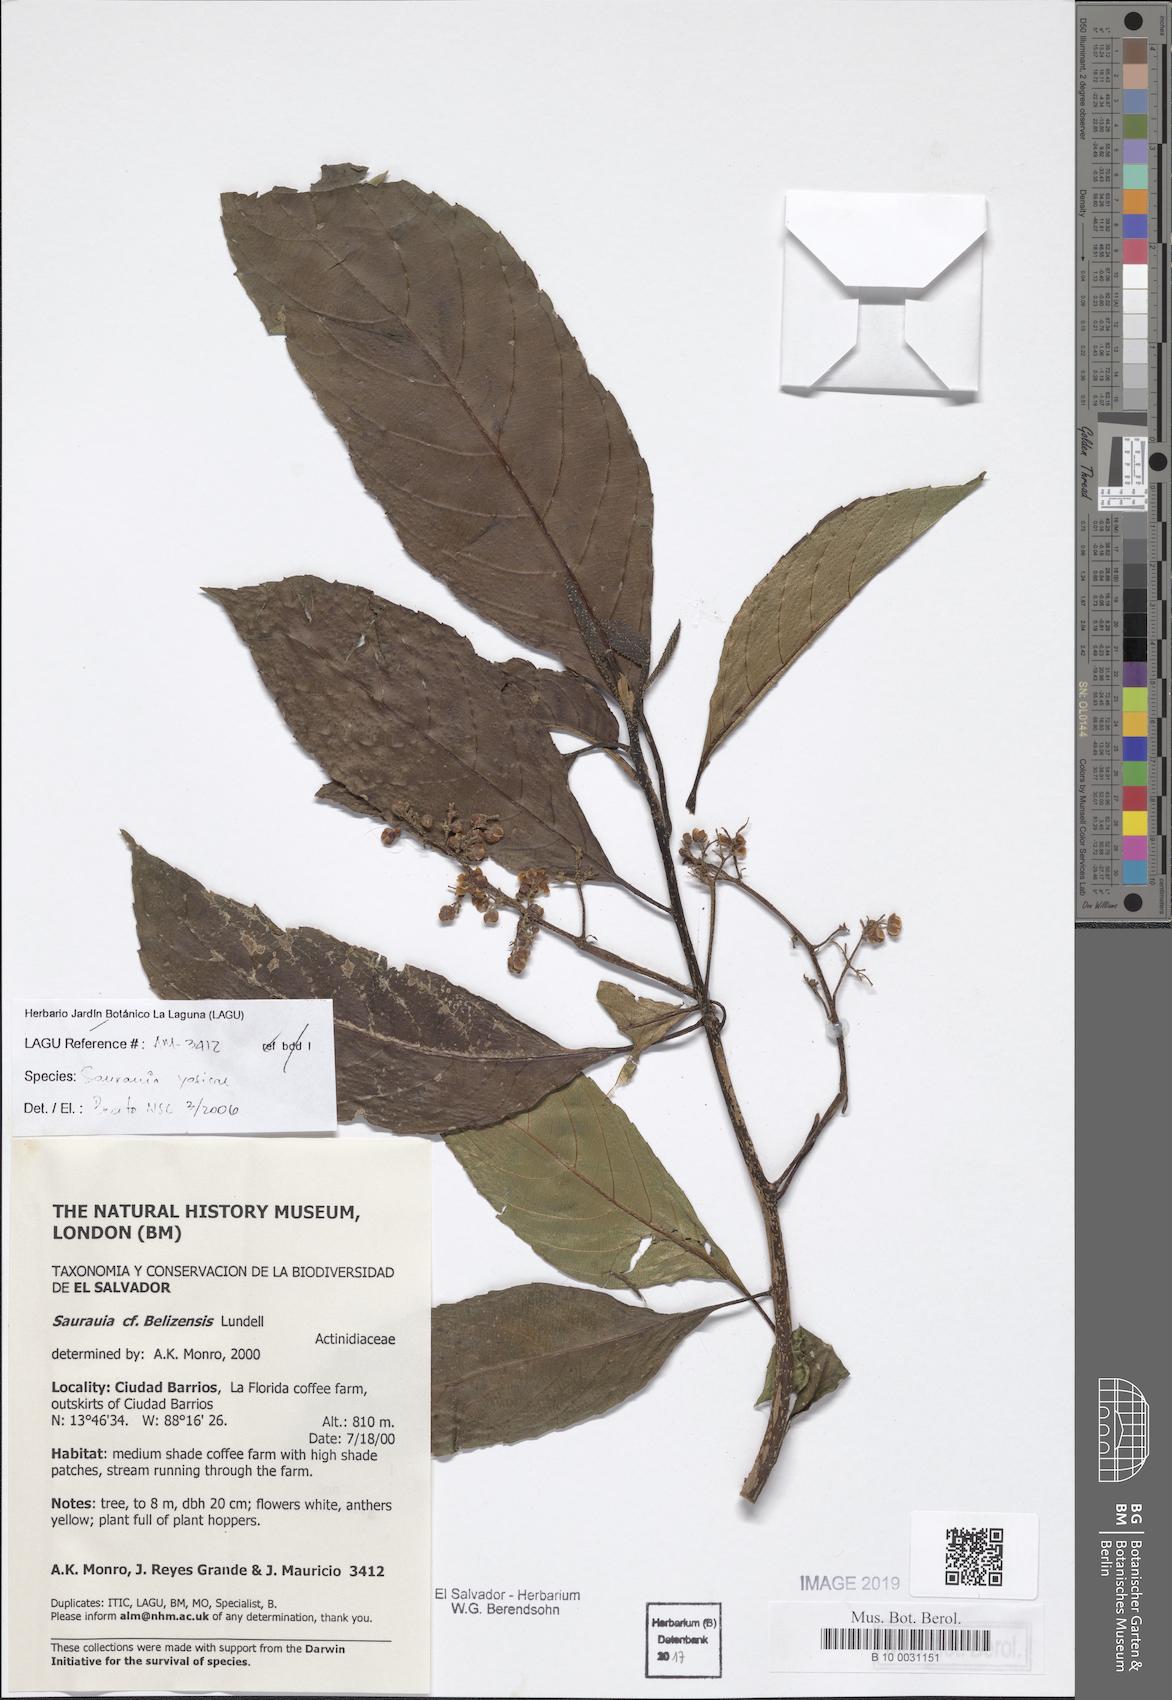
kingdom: Plantae
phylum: Tracheophyta
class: Magnoliopsida
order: Ericales
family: Actinidiaceae
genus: Saurauia
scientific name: Saurauia yasicae
